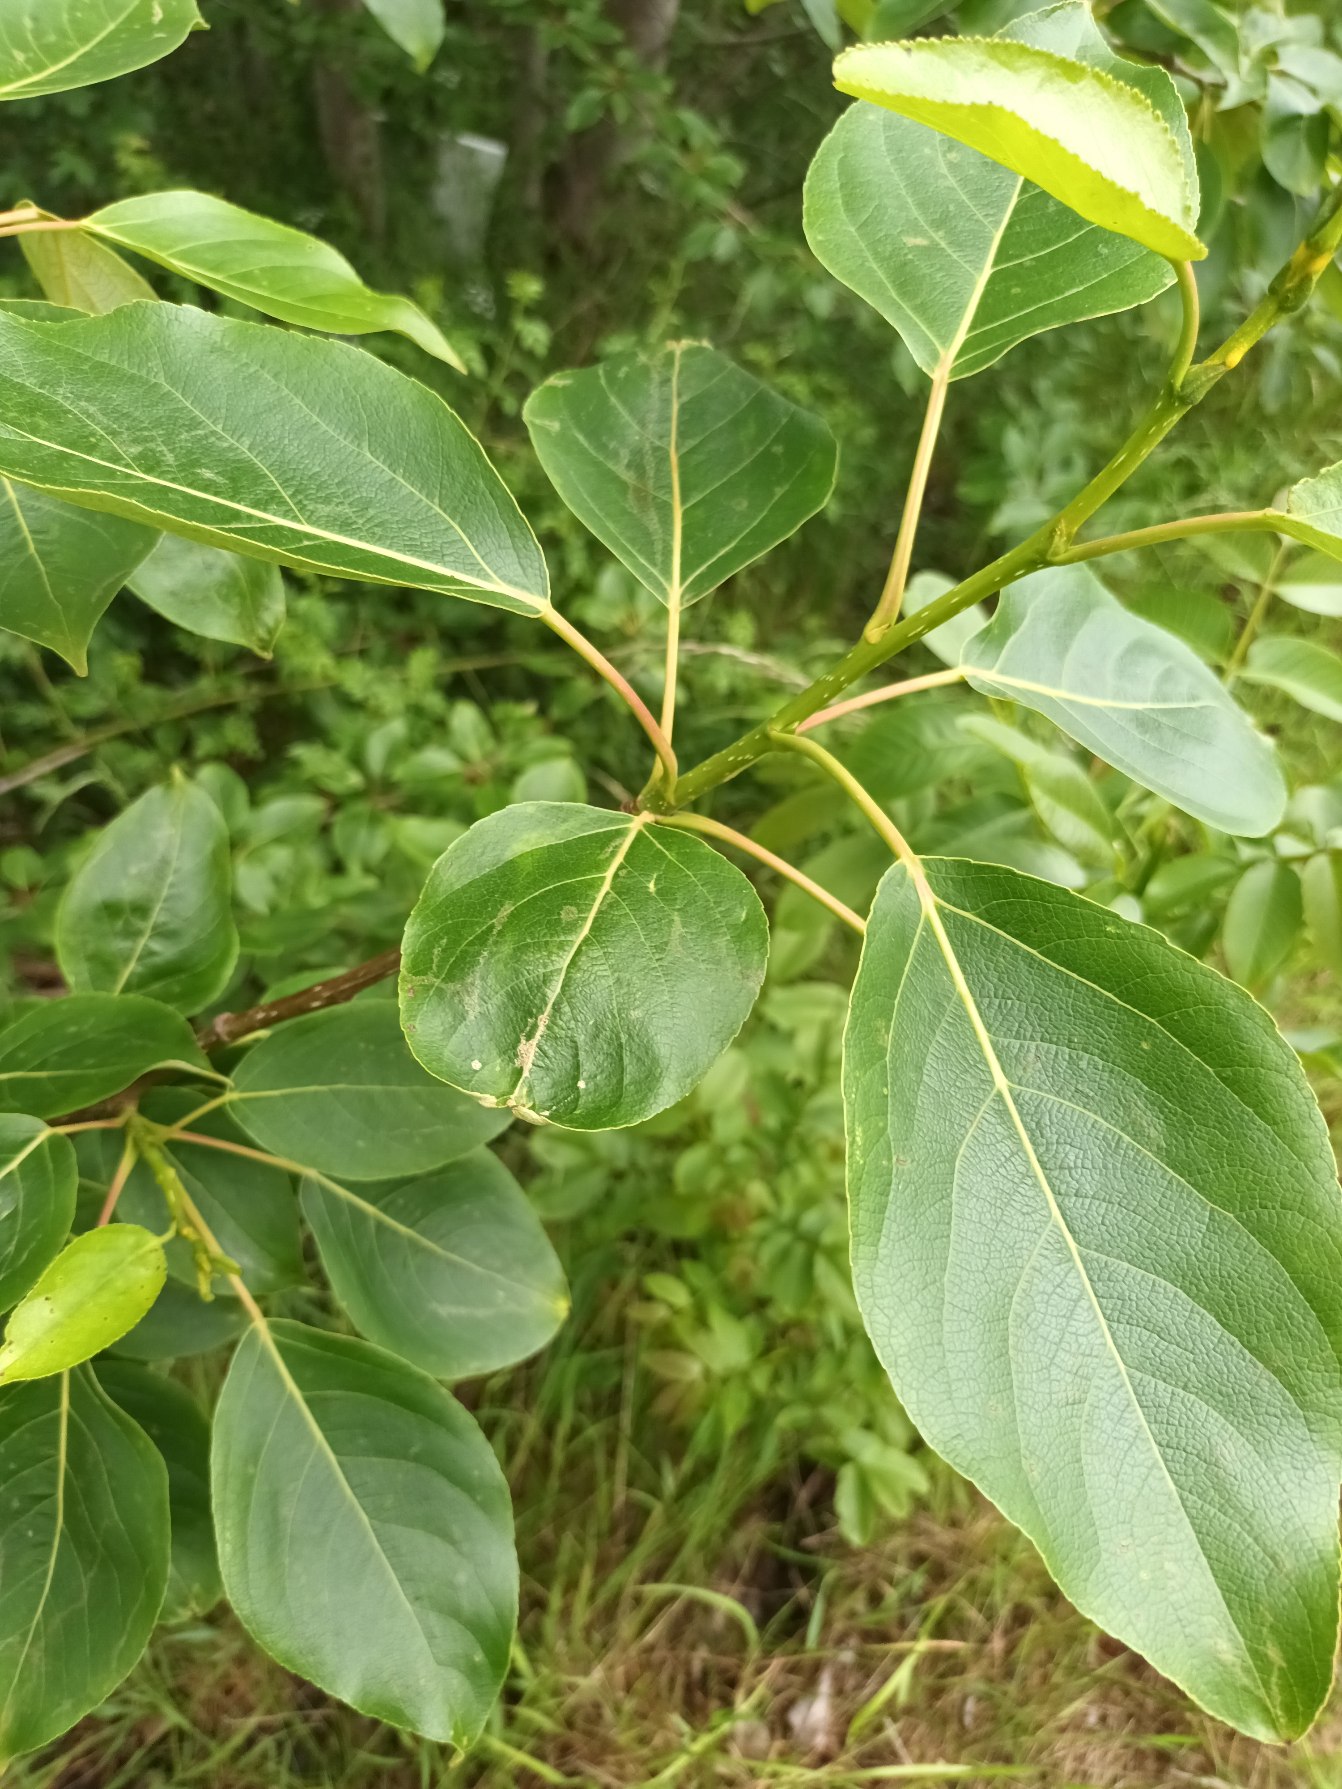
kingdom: Plantae
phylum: Tracheophyta
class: Magnoliopsida
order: Malpighiales
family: Salicaceae
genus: Populus
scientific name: Populus balsamifera
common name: Balsam-poppel
